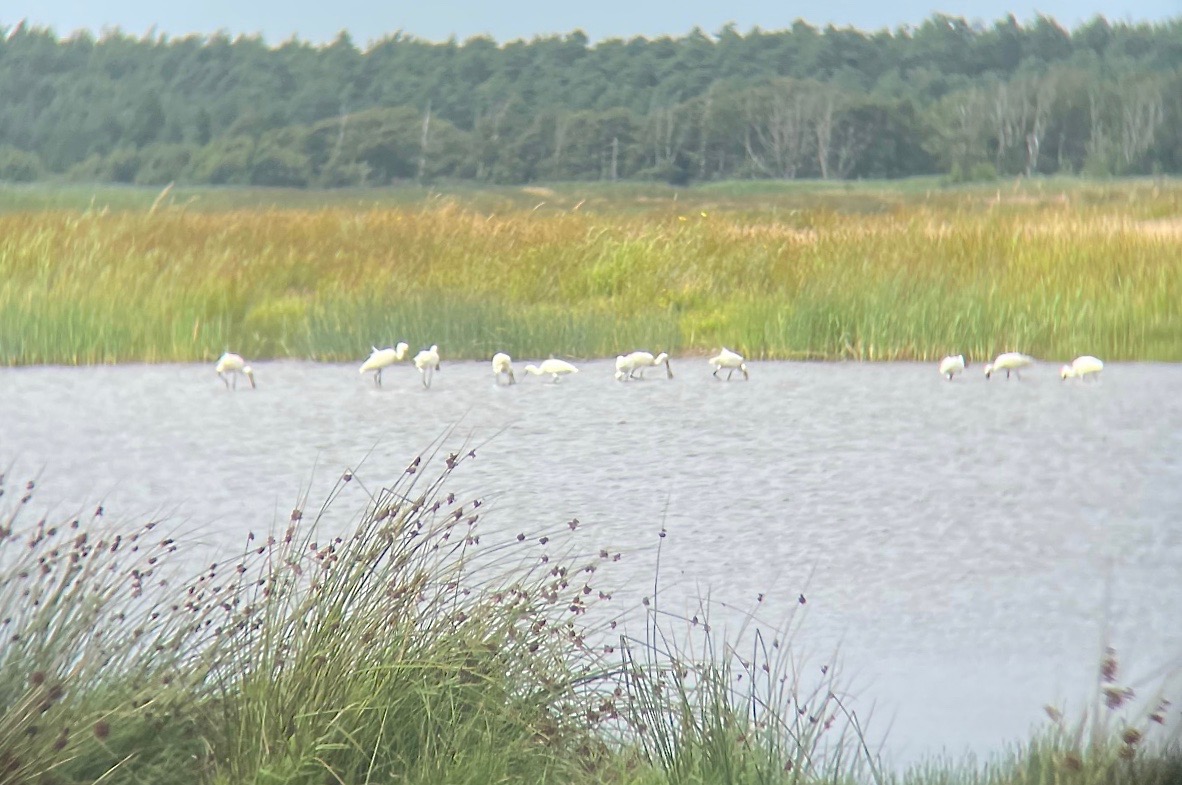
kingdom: Animalia
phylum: Chordata
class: Aves
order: Pelecaniformes
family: Threskiornithidae
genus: Platalea
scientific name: Platalea leucorodia
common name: Skestork
